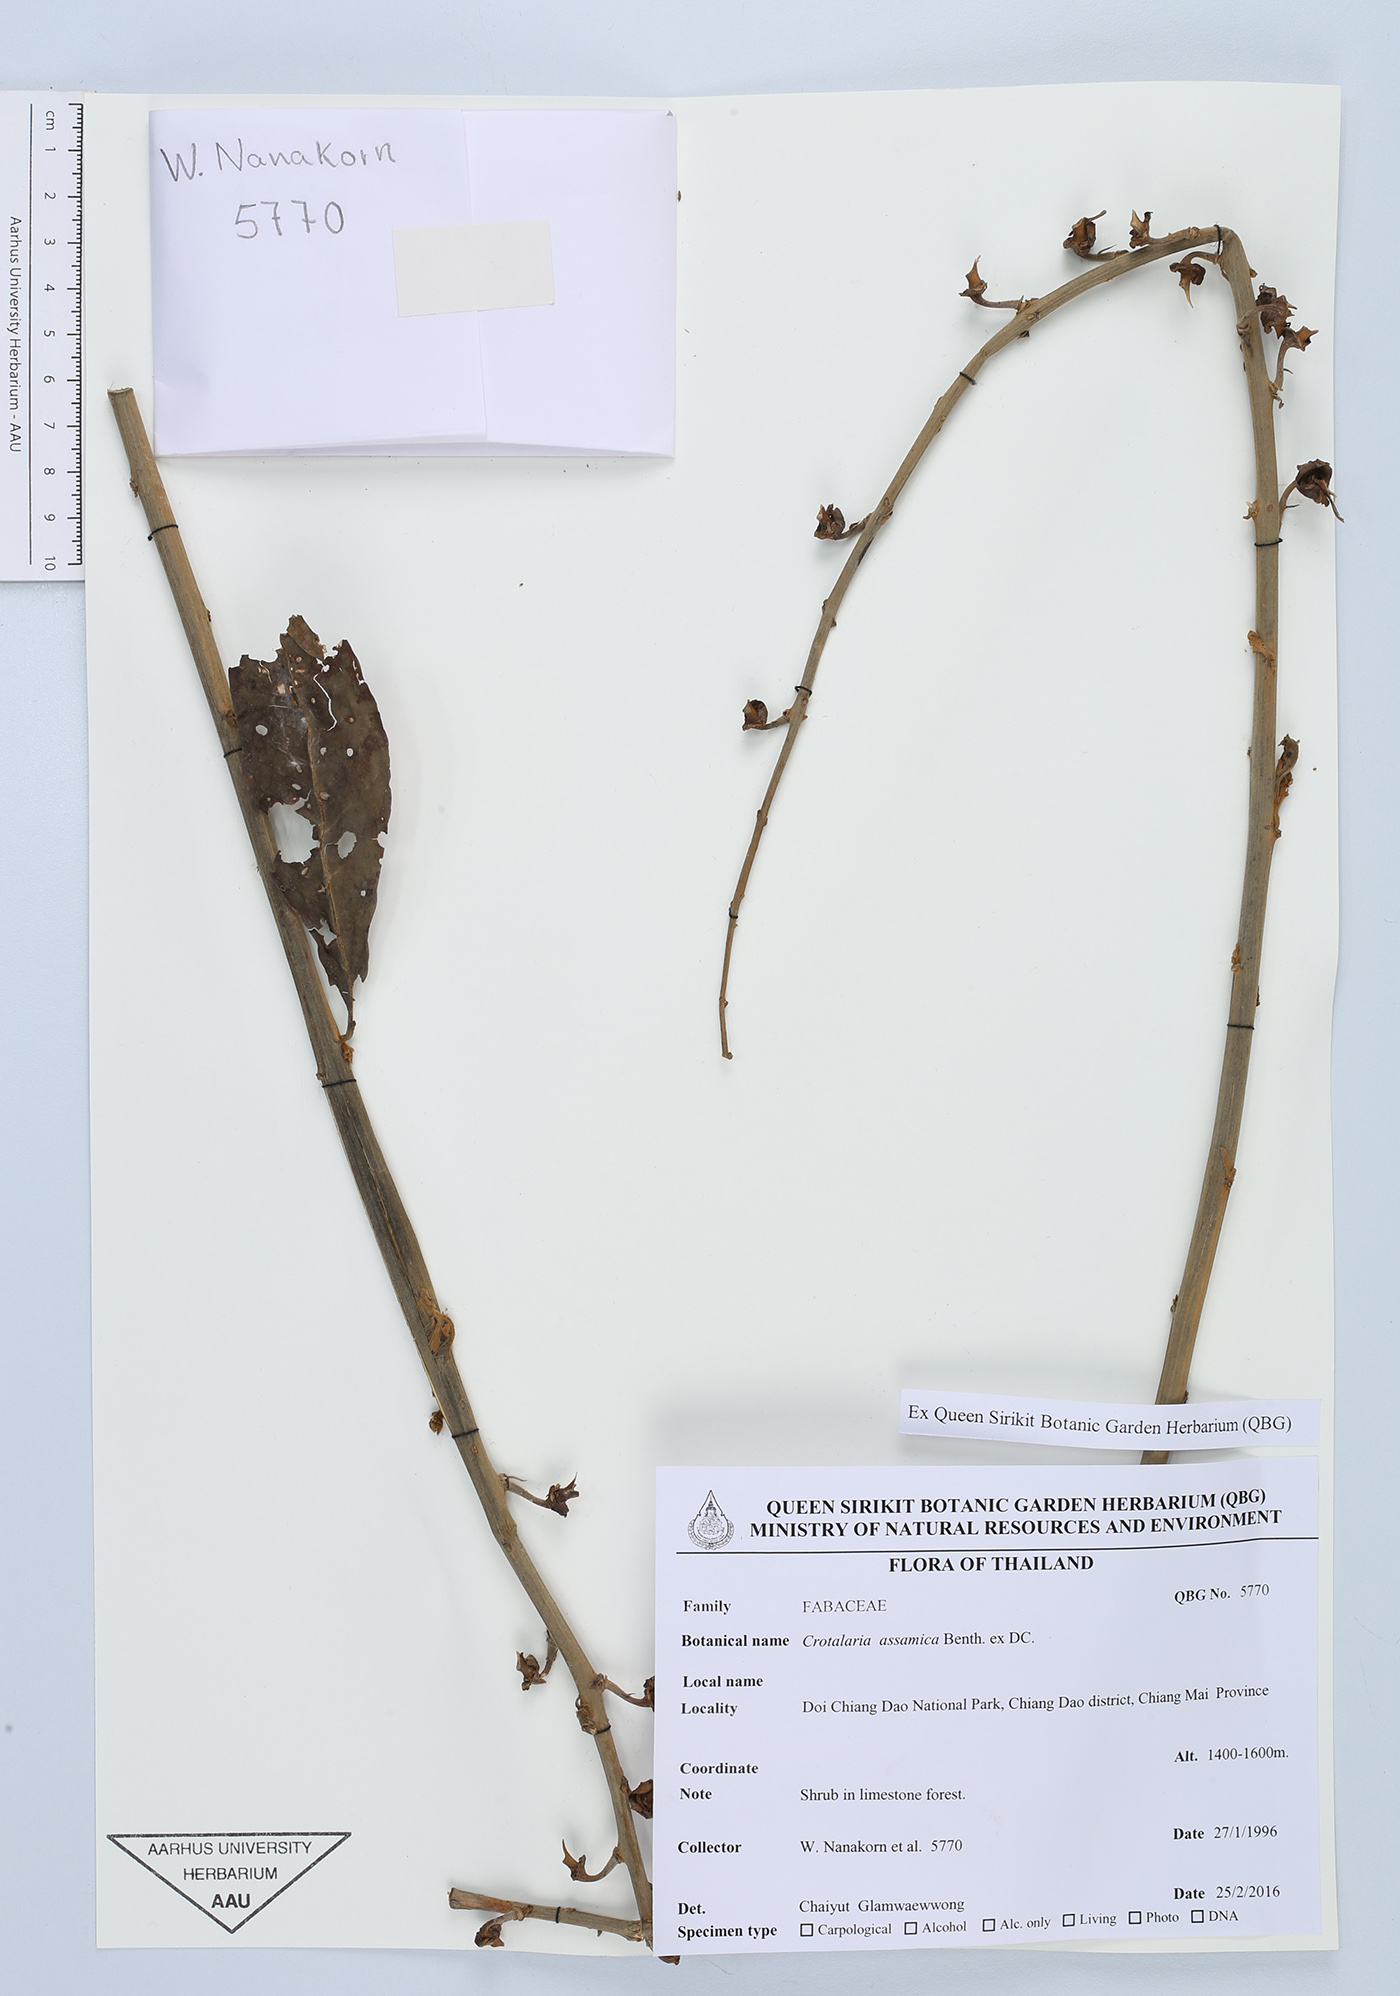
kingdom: Plantae
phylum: Tracheophyta
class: Magnoliopsida
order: Fabales
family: Fabaceae
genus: Crotalaria
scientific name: Crotalaria sericea
